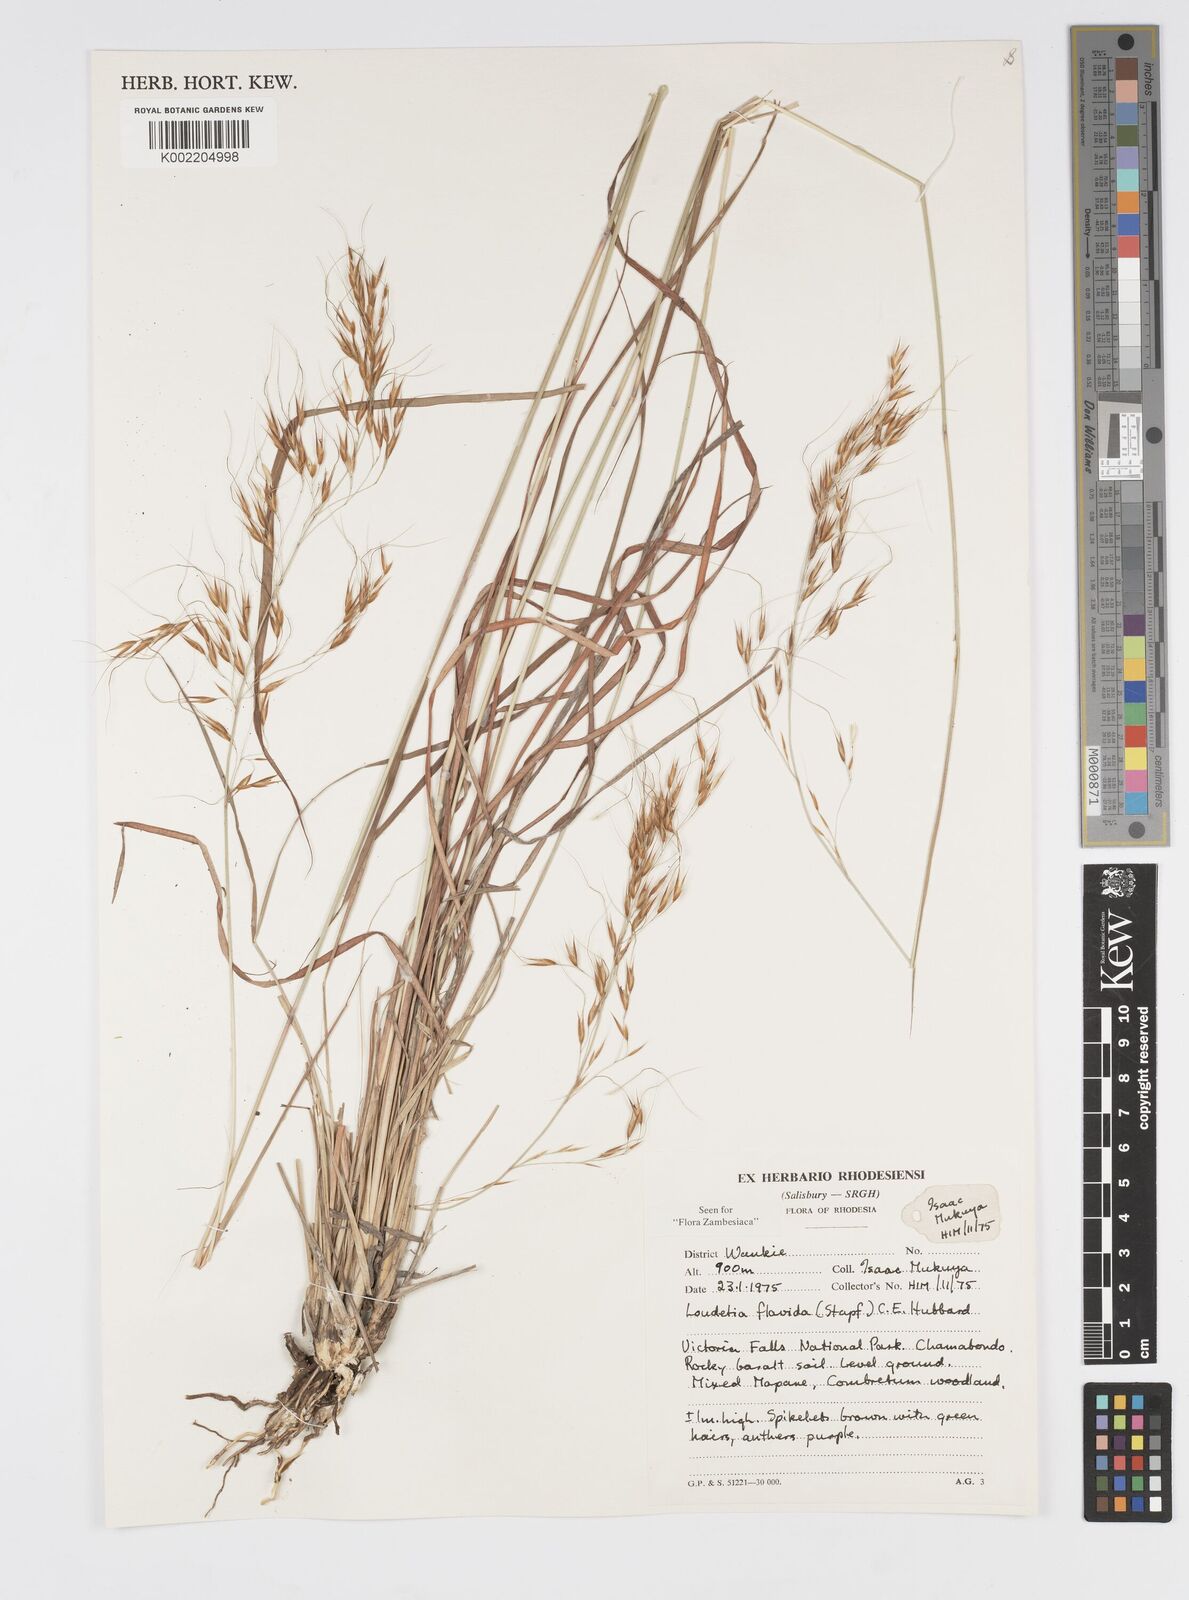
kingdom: Plantae
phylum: Tracheophyta
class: Liliopsida
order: Poales
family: Poaceae
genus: Loudetia
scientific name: Loudetia flavida
